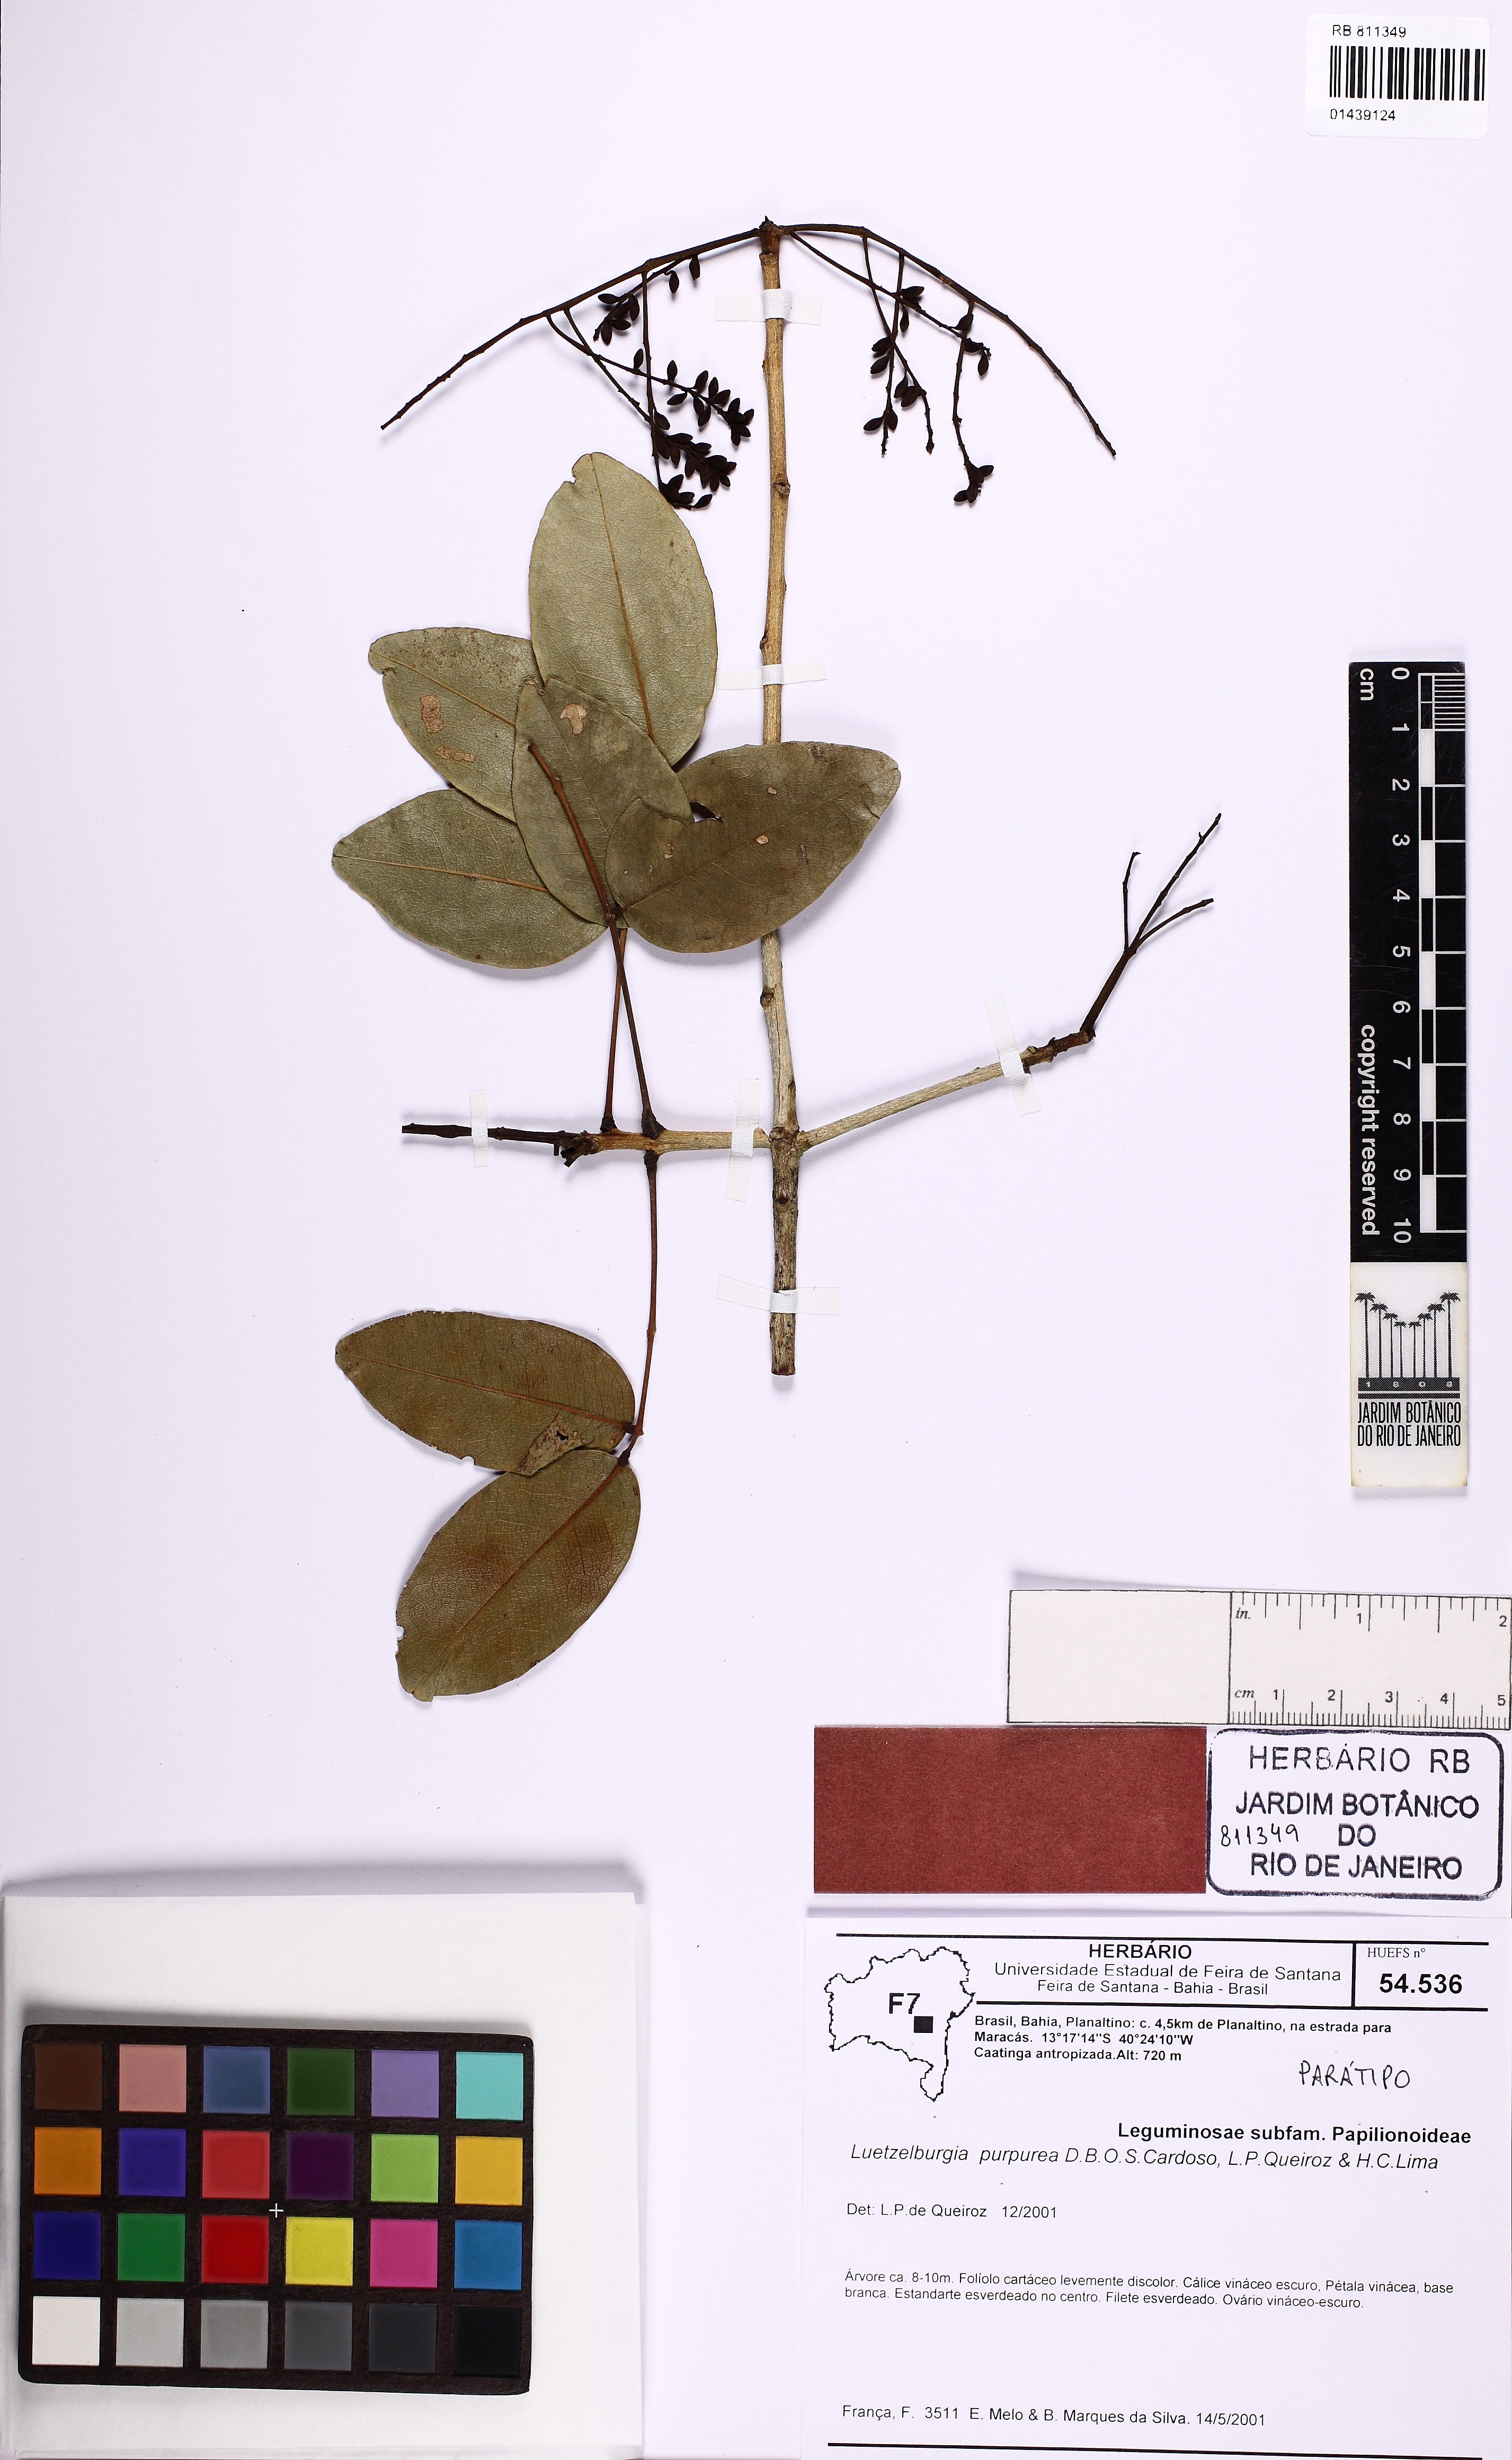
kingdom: Plantae
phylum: Tracheophyta
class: Magnoliopsida
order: Fabales
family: Fabaceae
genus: Luetzelburgia
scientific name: Luetzelburgia purpurea
